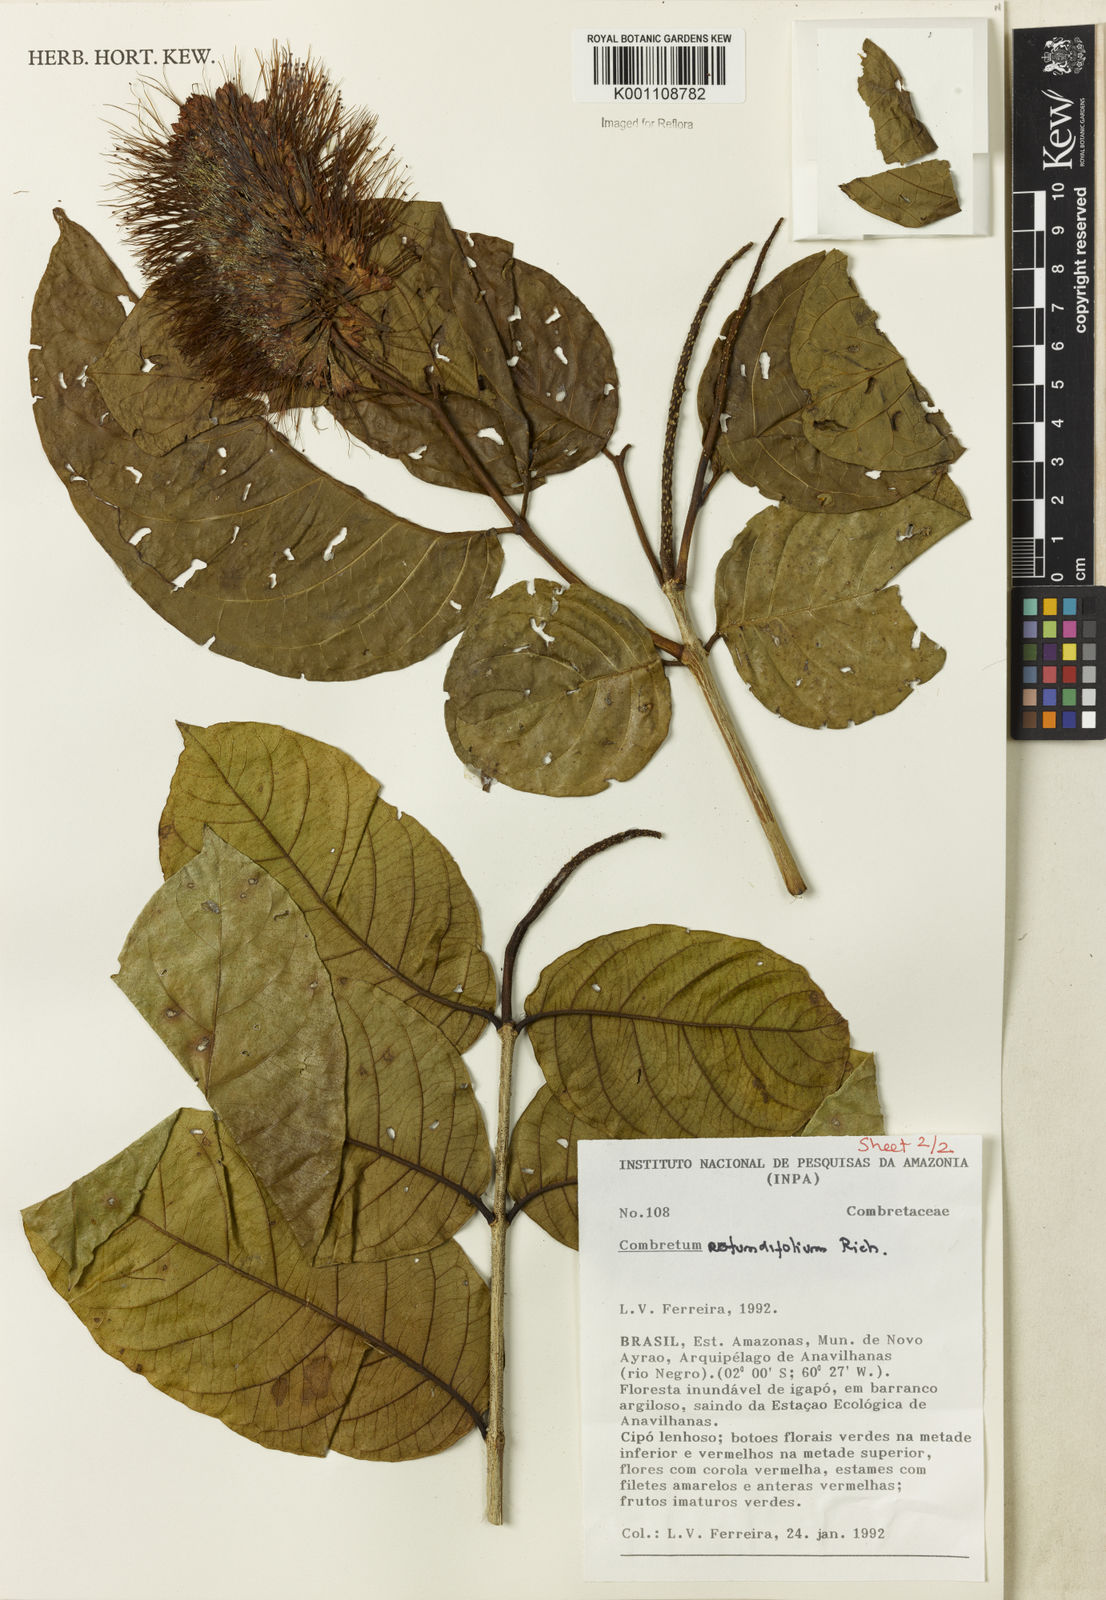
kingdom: Plantae
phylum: Tracheophyta
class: Magnoliopsida
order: Myrtales
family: Combretaceae
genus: Combretum
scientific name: Combretum rotundifolium
